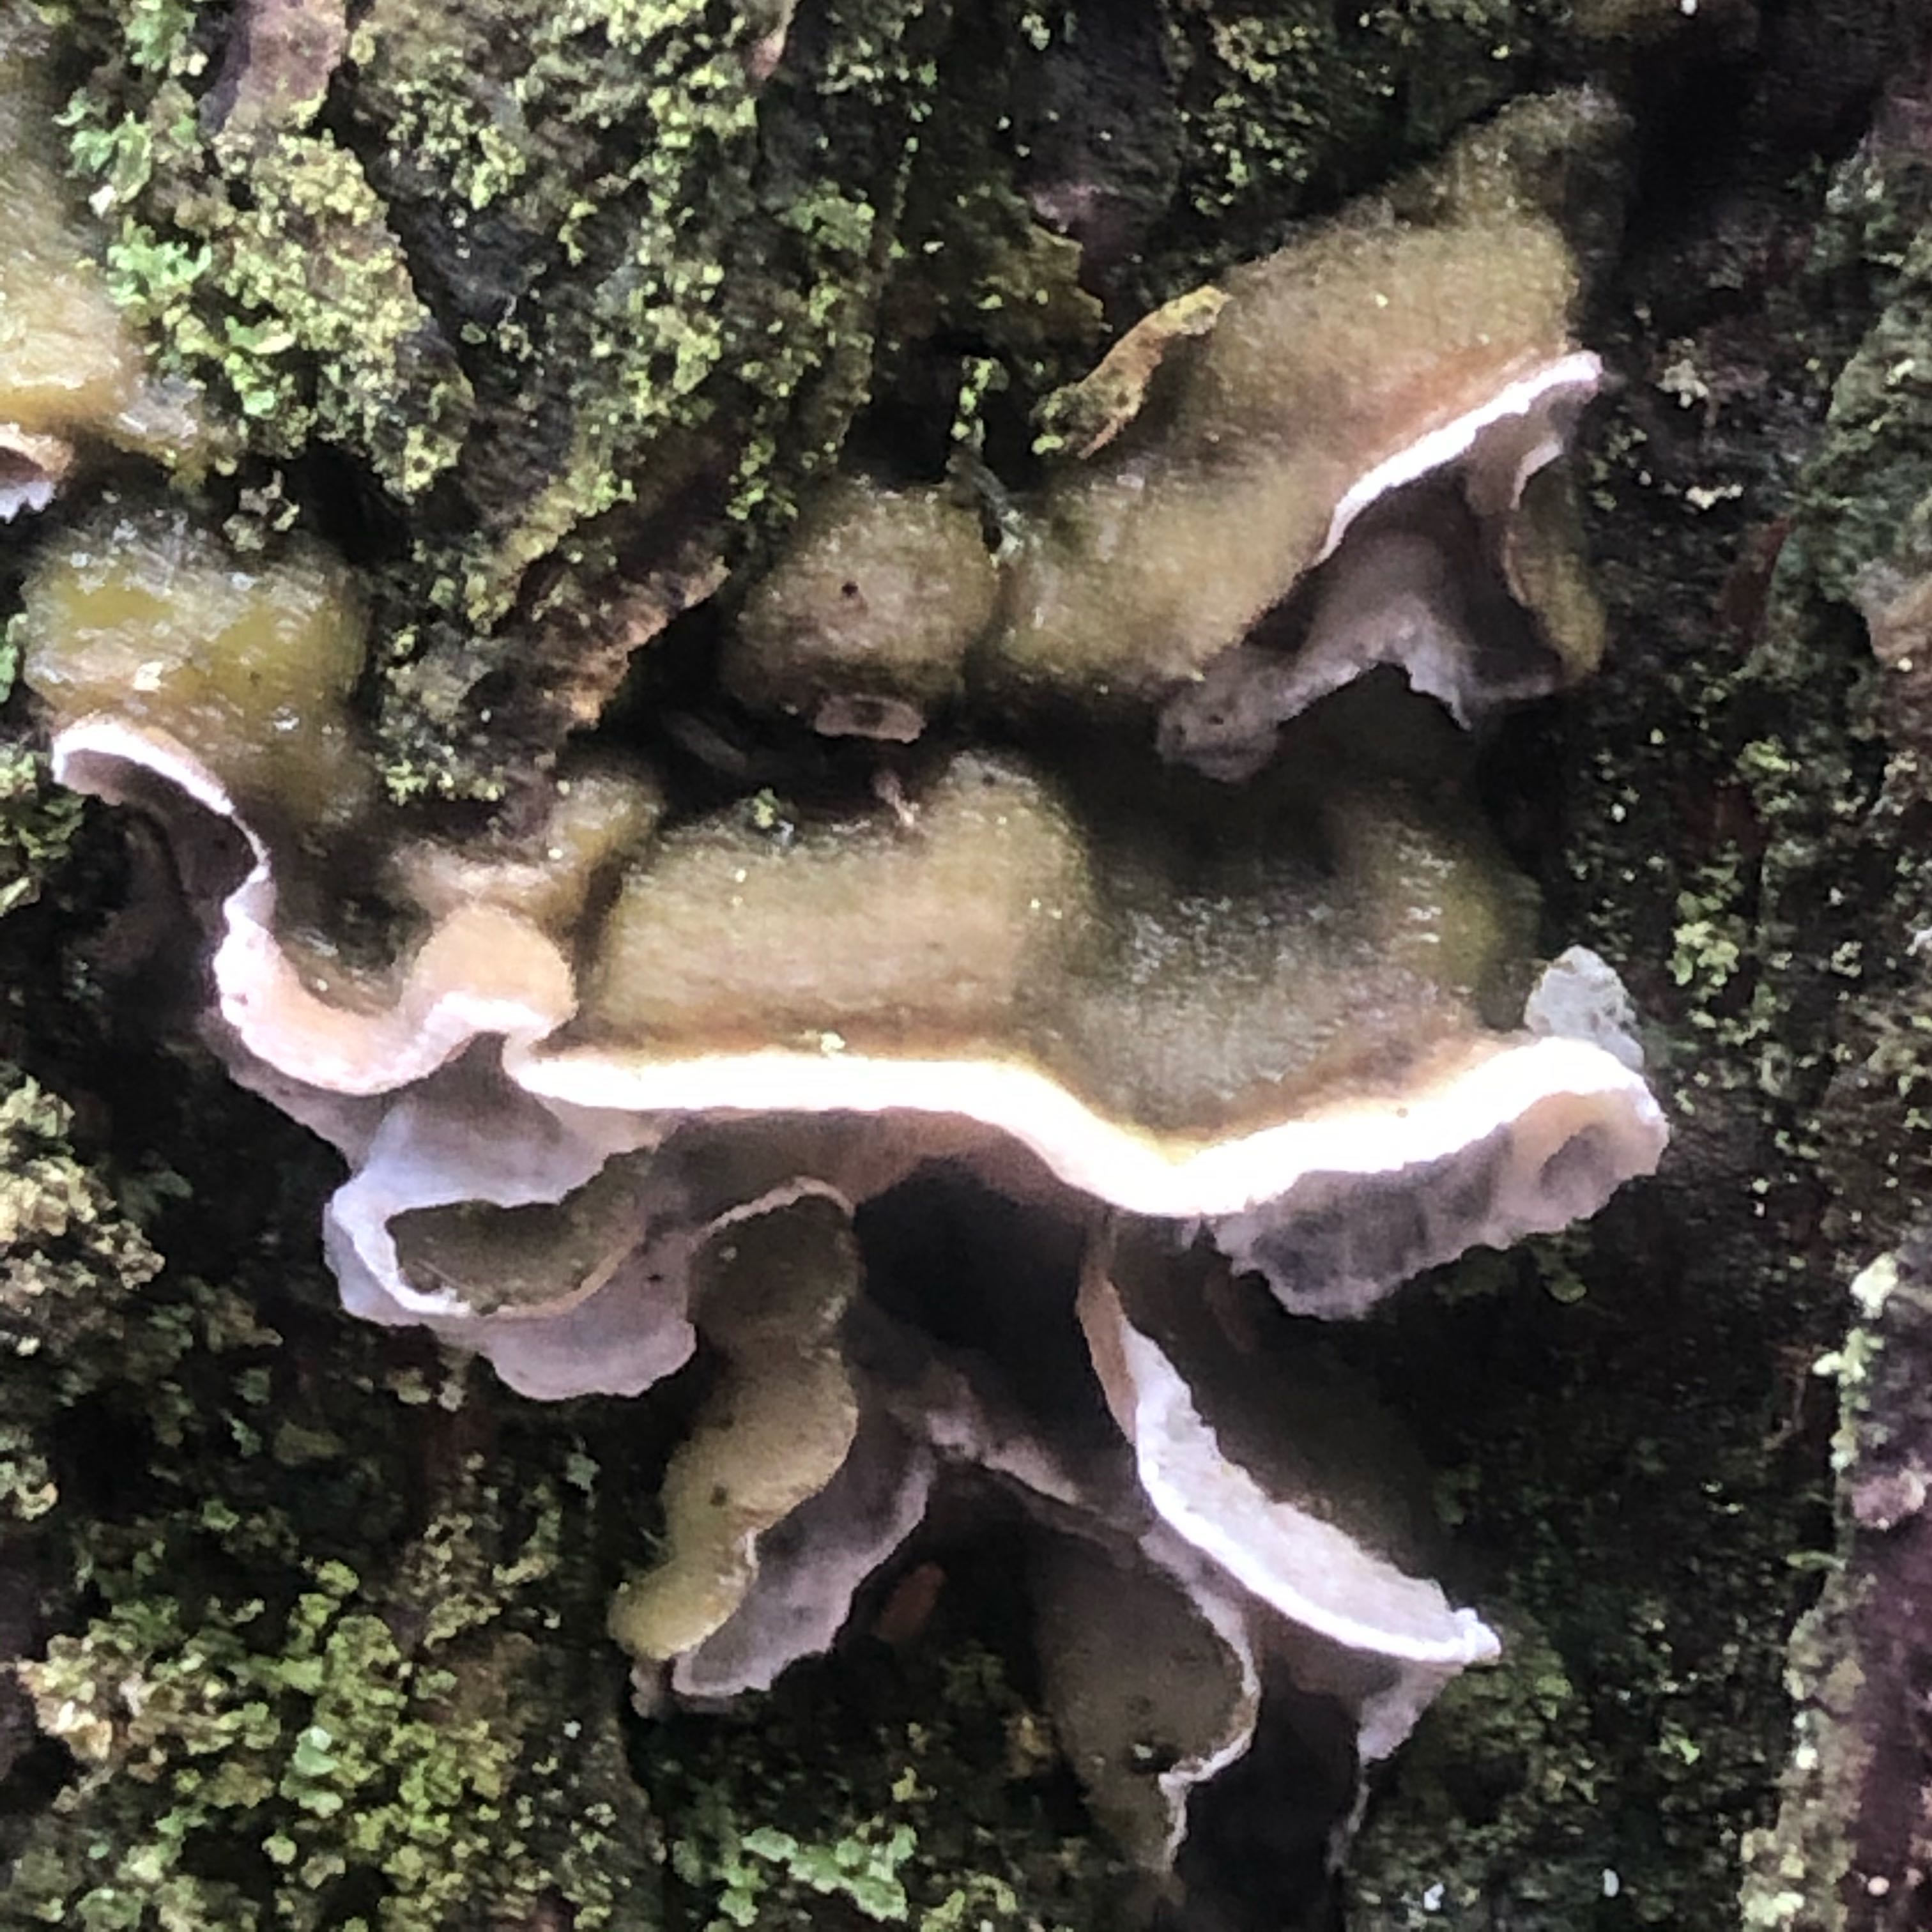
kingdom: Fungi
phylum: Basidiomycota
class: Agaricomycetes
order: Polyporales
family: Incrustoporiaceae
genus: Skeletocutis
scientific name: Skeletocutis amorpha
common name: orange krystalporesvamp
